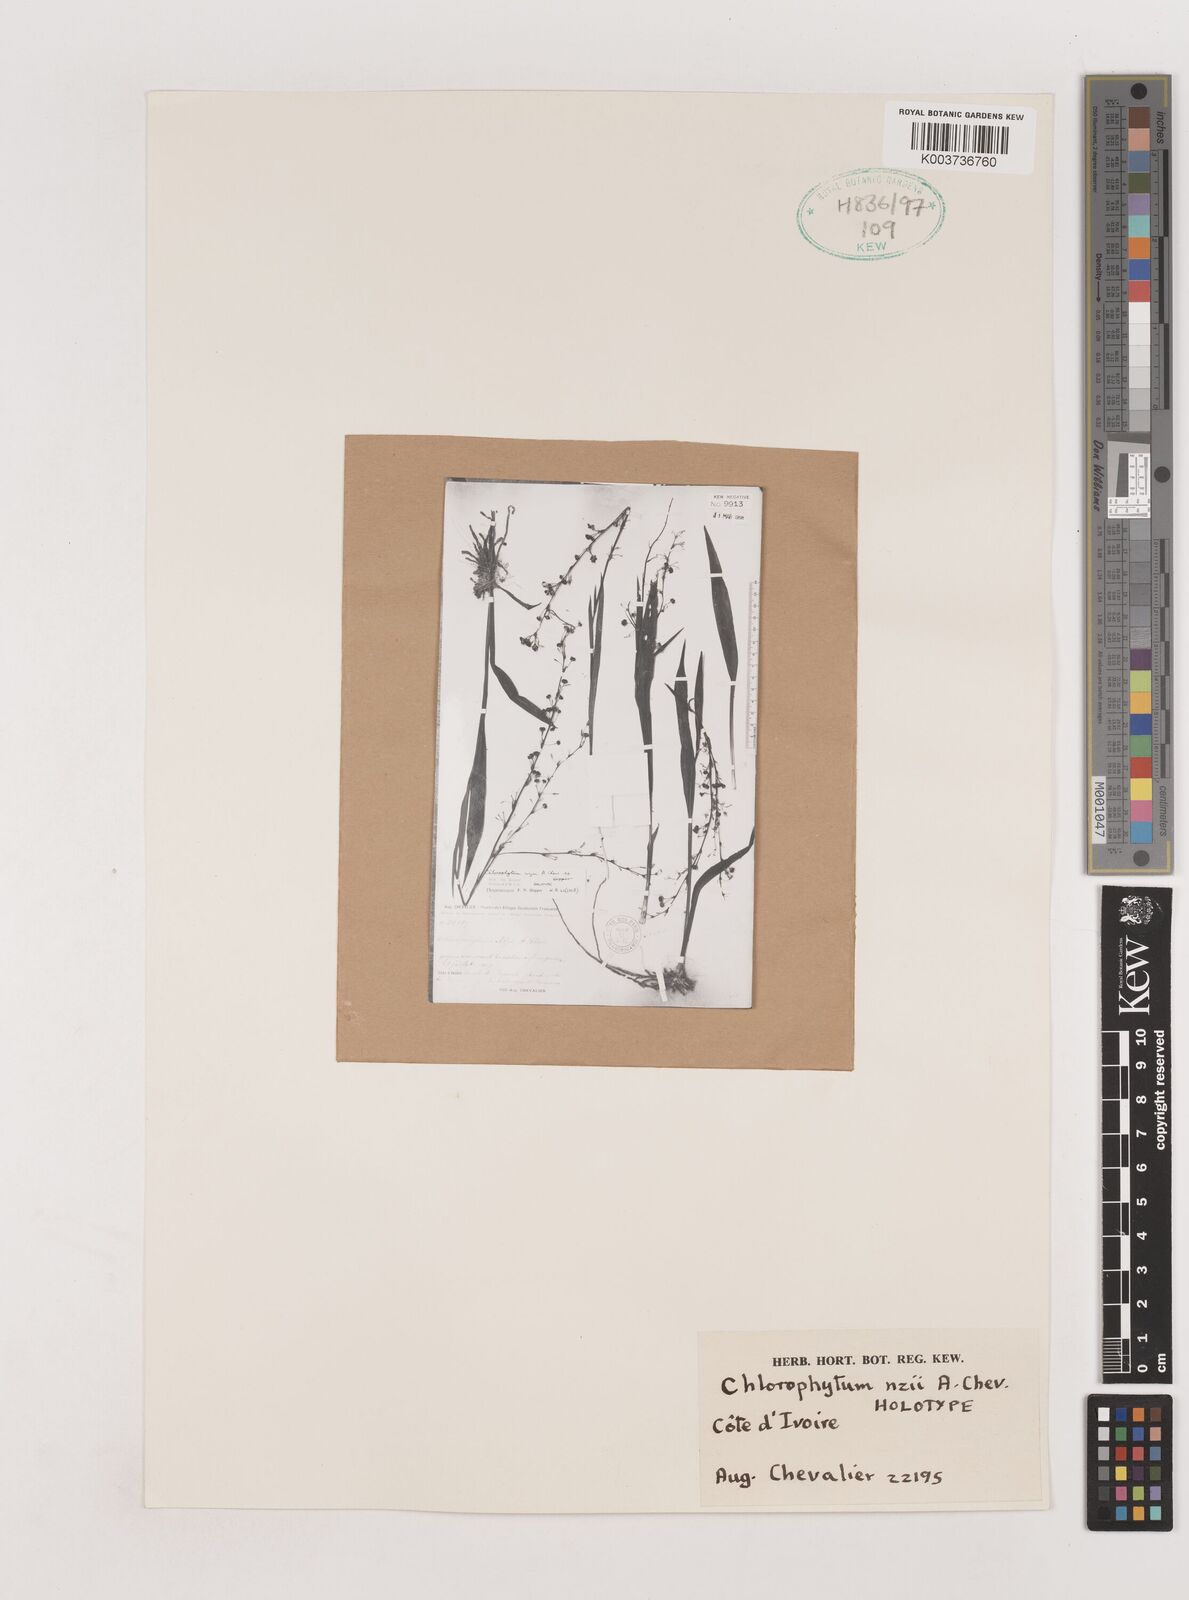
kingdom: Plantae
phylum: Tracheophyta
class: Liliopsida
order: Asparagales
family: Asparagaceae
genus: Chlorophytum
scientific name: Chlorophytum nzii
